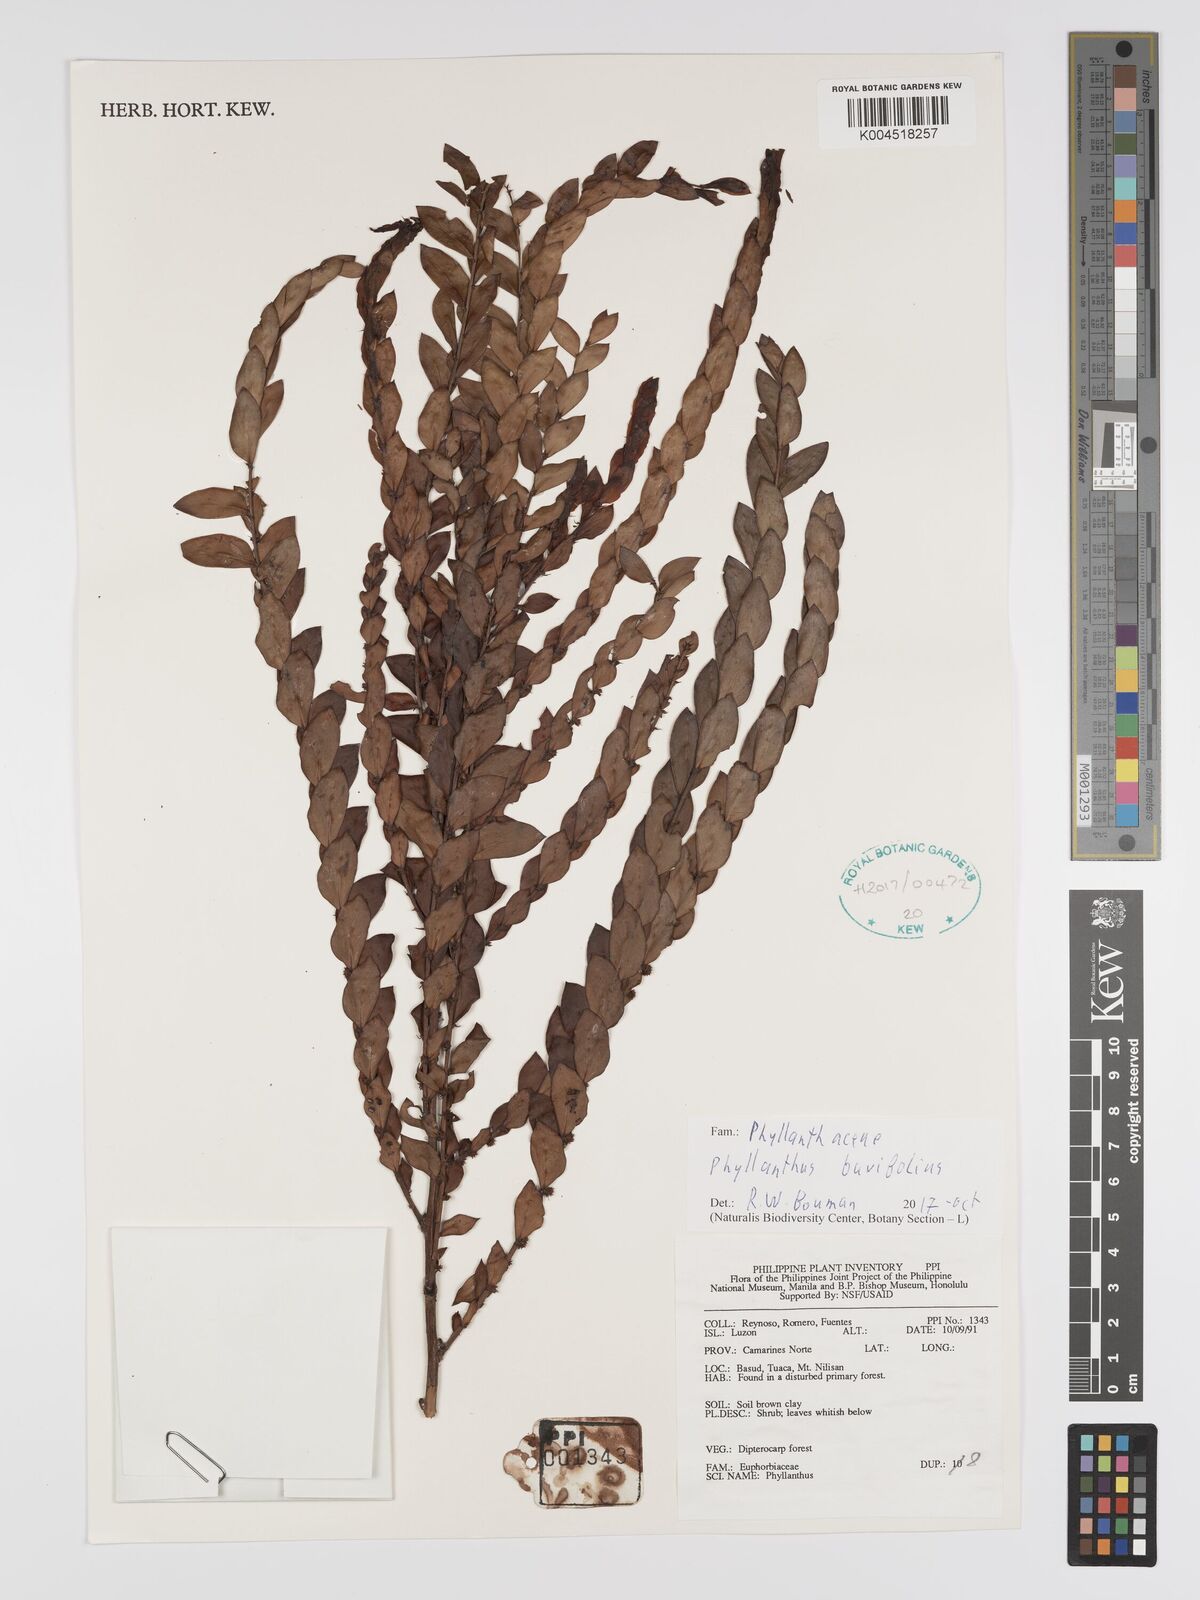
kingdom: Plantae
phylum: Tracheophyta
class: Magnoliopsida
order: Malpighiales
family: Phyllanthaceae
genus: Phyllanthus
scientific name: Phyllanthus buxifolius
